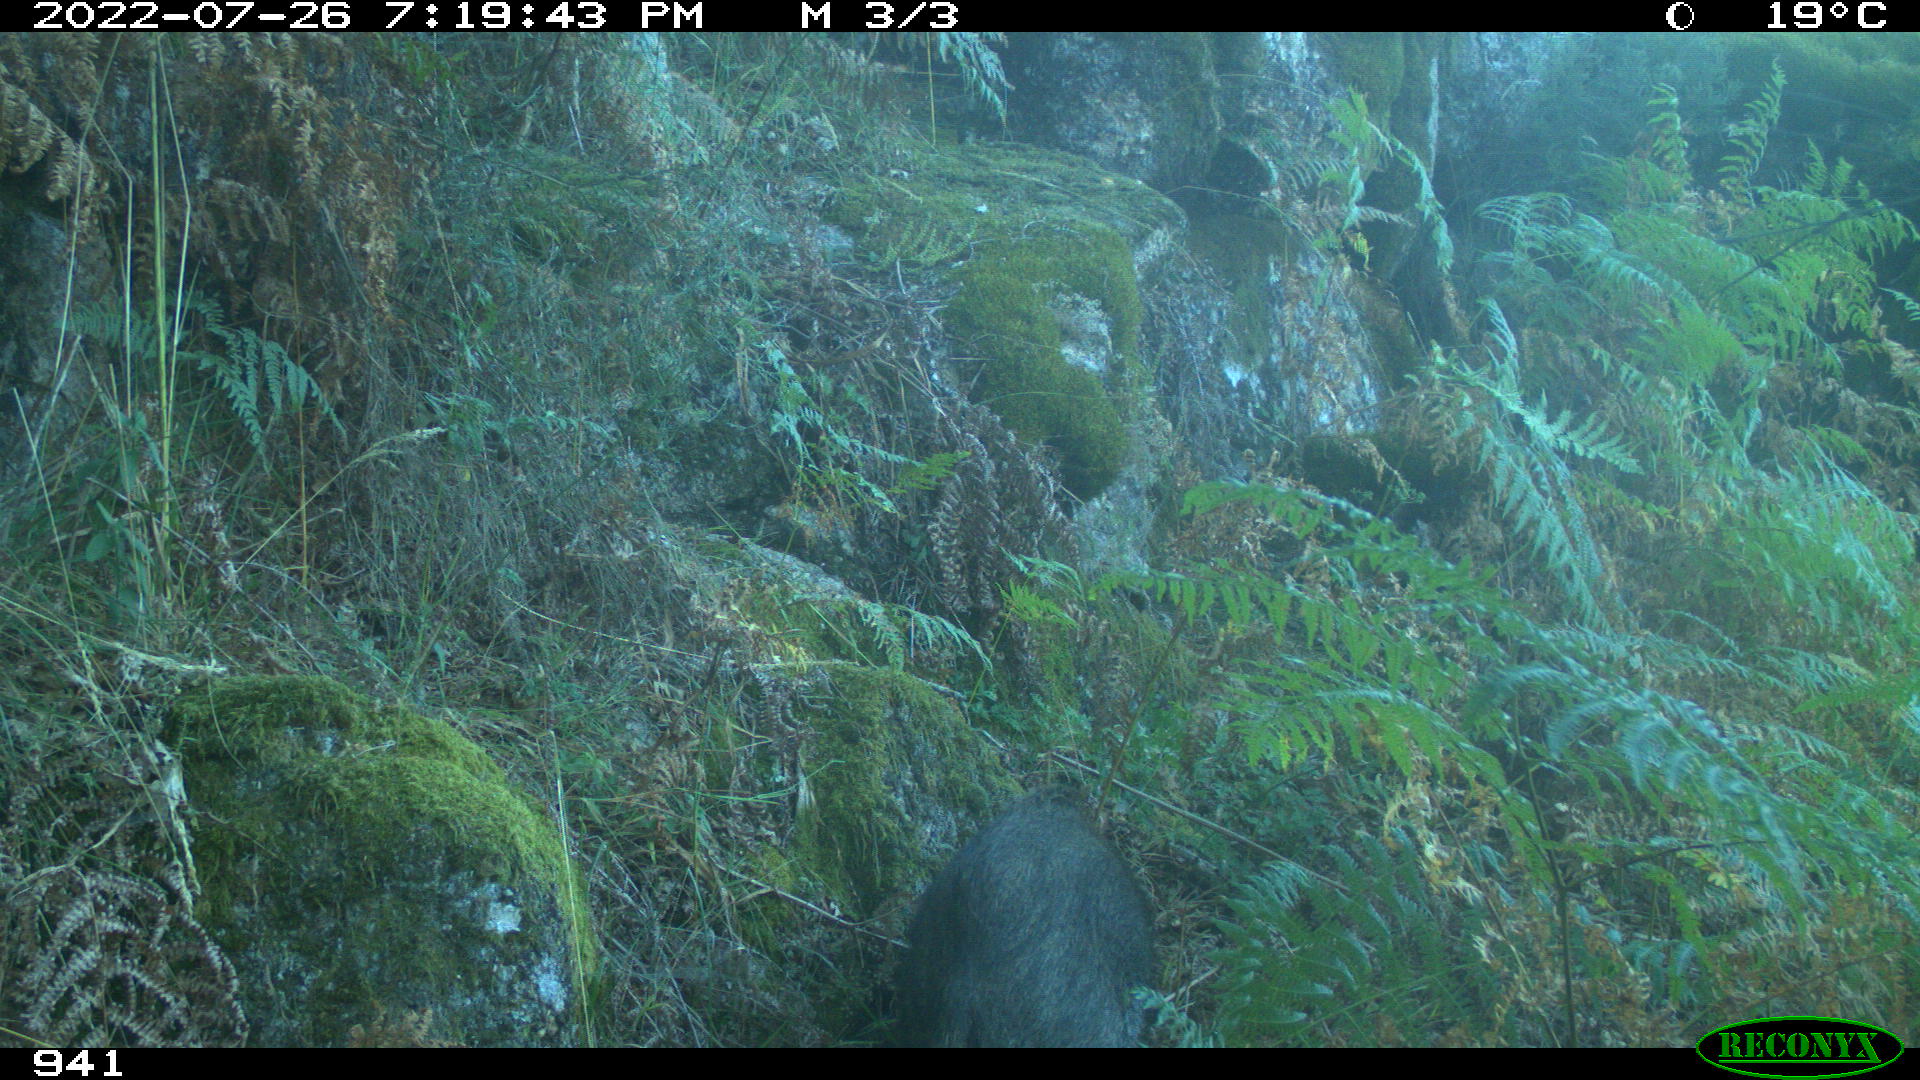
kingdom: Animalia
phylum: Chordata
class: Mammalia
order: Artiodactyla
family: Suidae
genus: Sus
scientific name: Sus scrofa
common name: Wild boar
